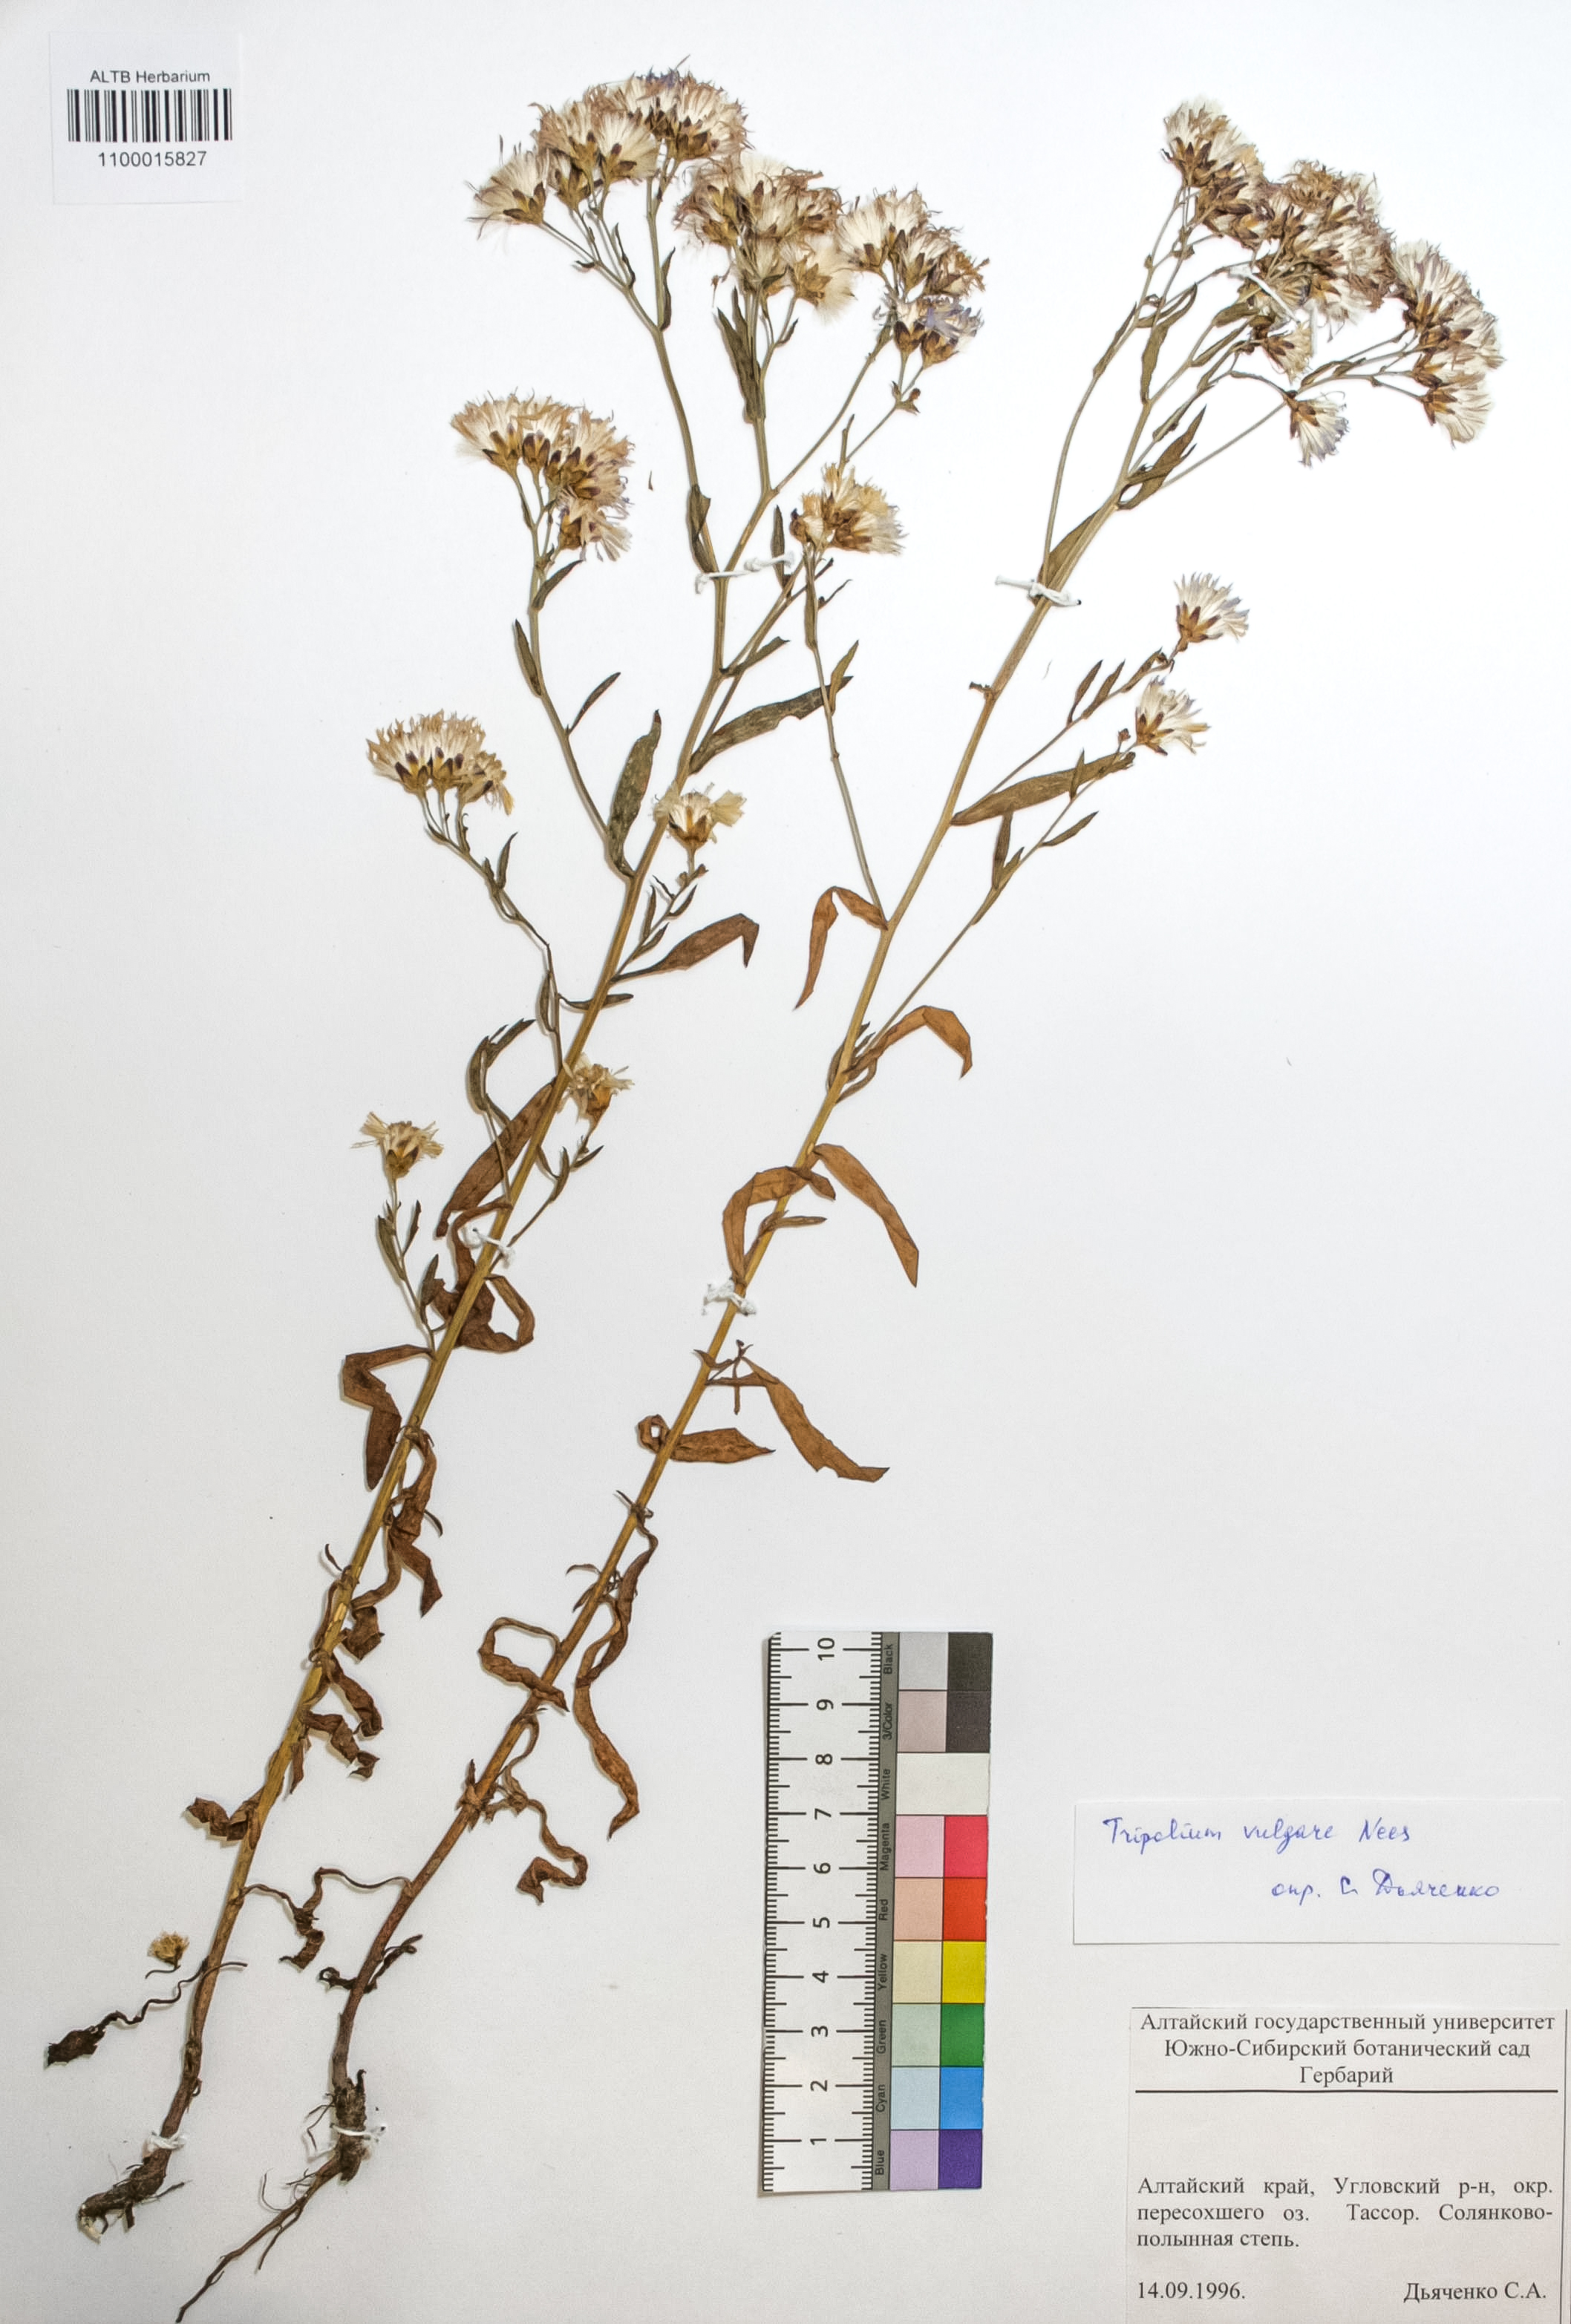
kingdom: Plantae
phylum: Tracheophyta
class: Magnoliopsida
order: Asterales
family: Asteraceae
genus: Tripolium
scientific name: Tripolium pannonicum
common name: Sea aster
